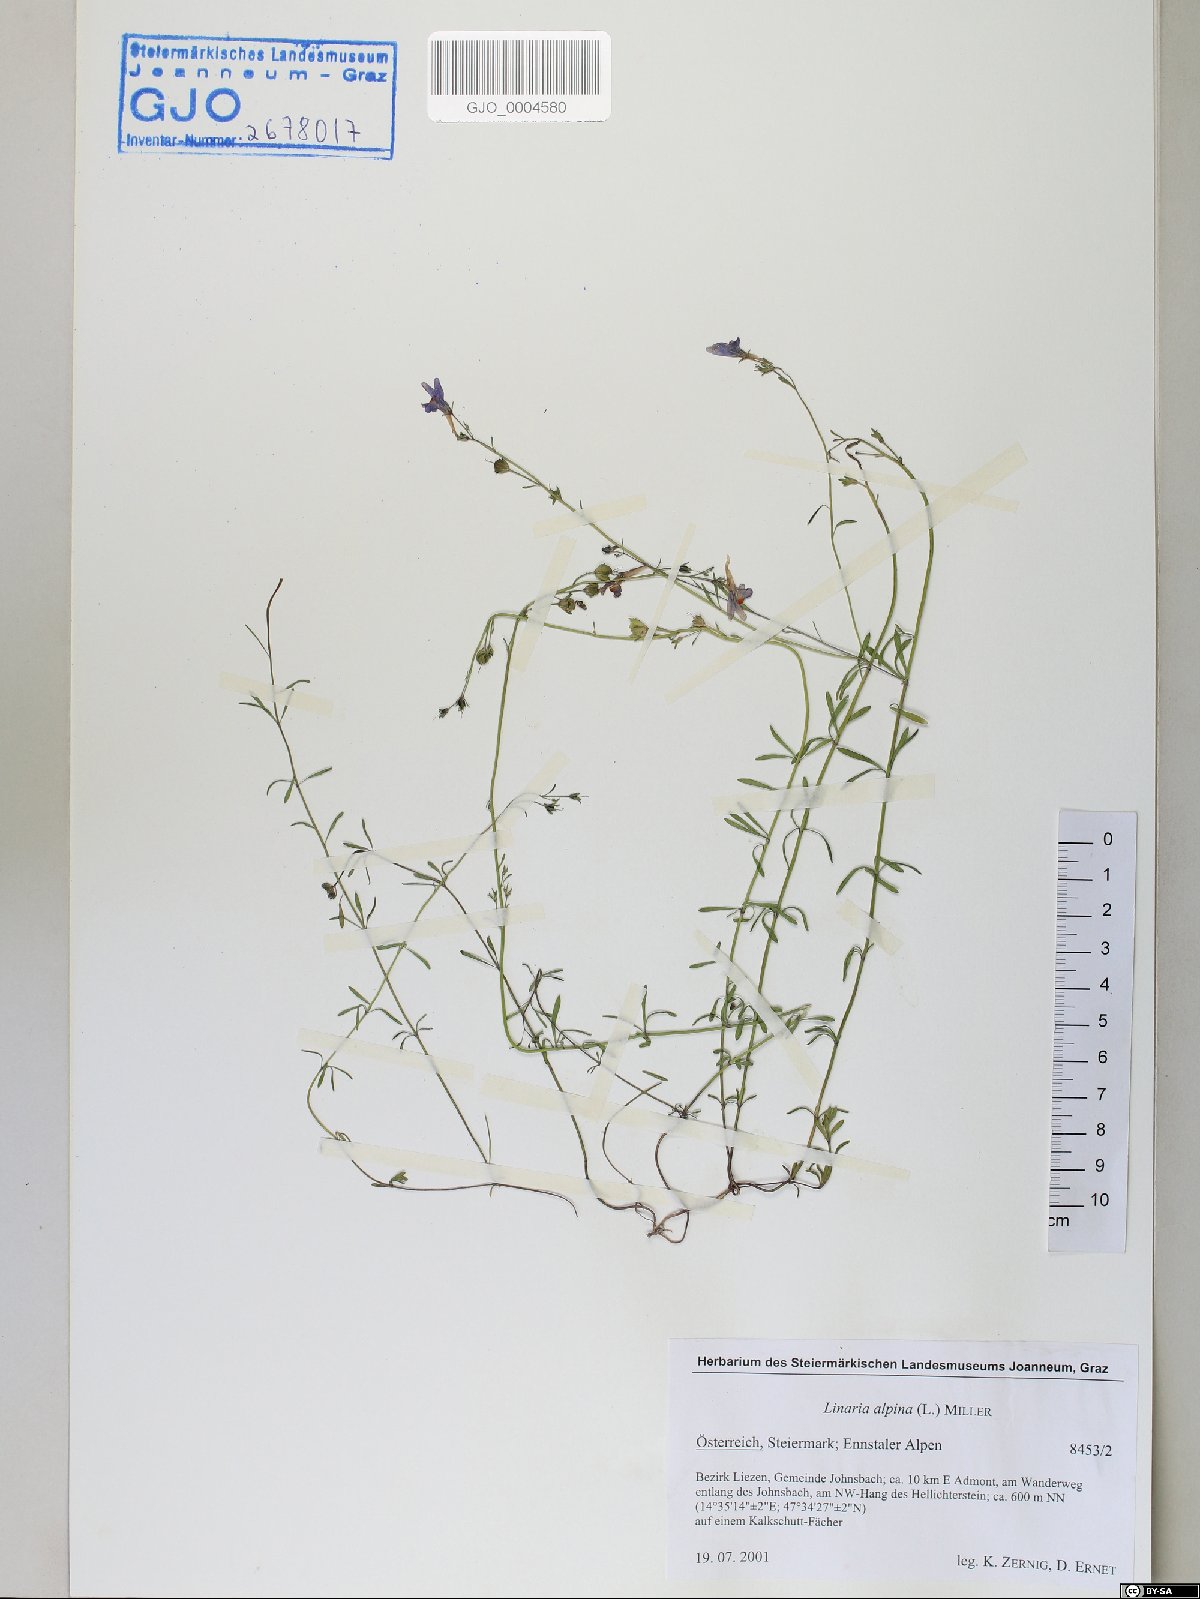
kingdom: Plantae
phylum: Tracheophyta
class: Magnoliopsida
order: Lamiales
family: Plantaginaceae
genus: Linaria
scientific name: Linaria alpina
